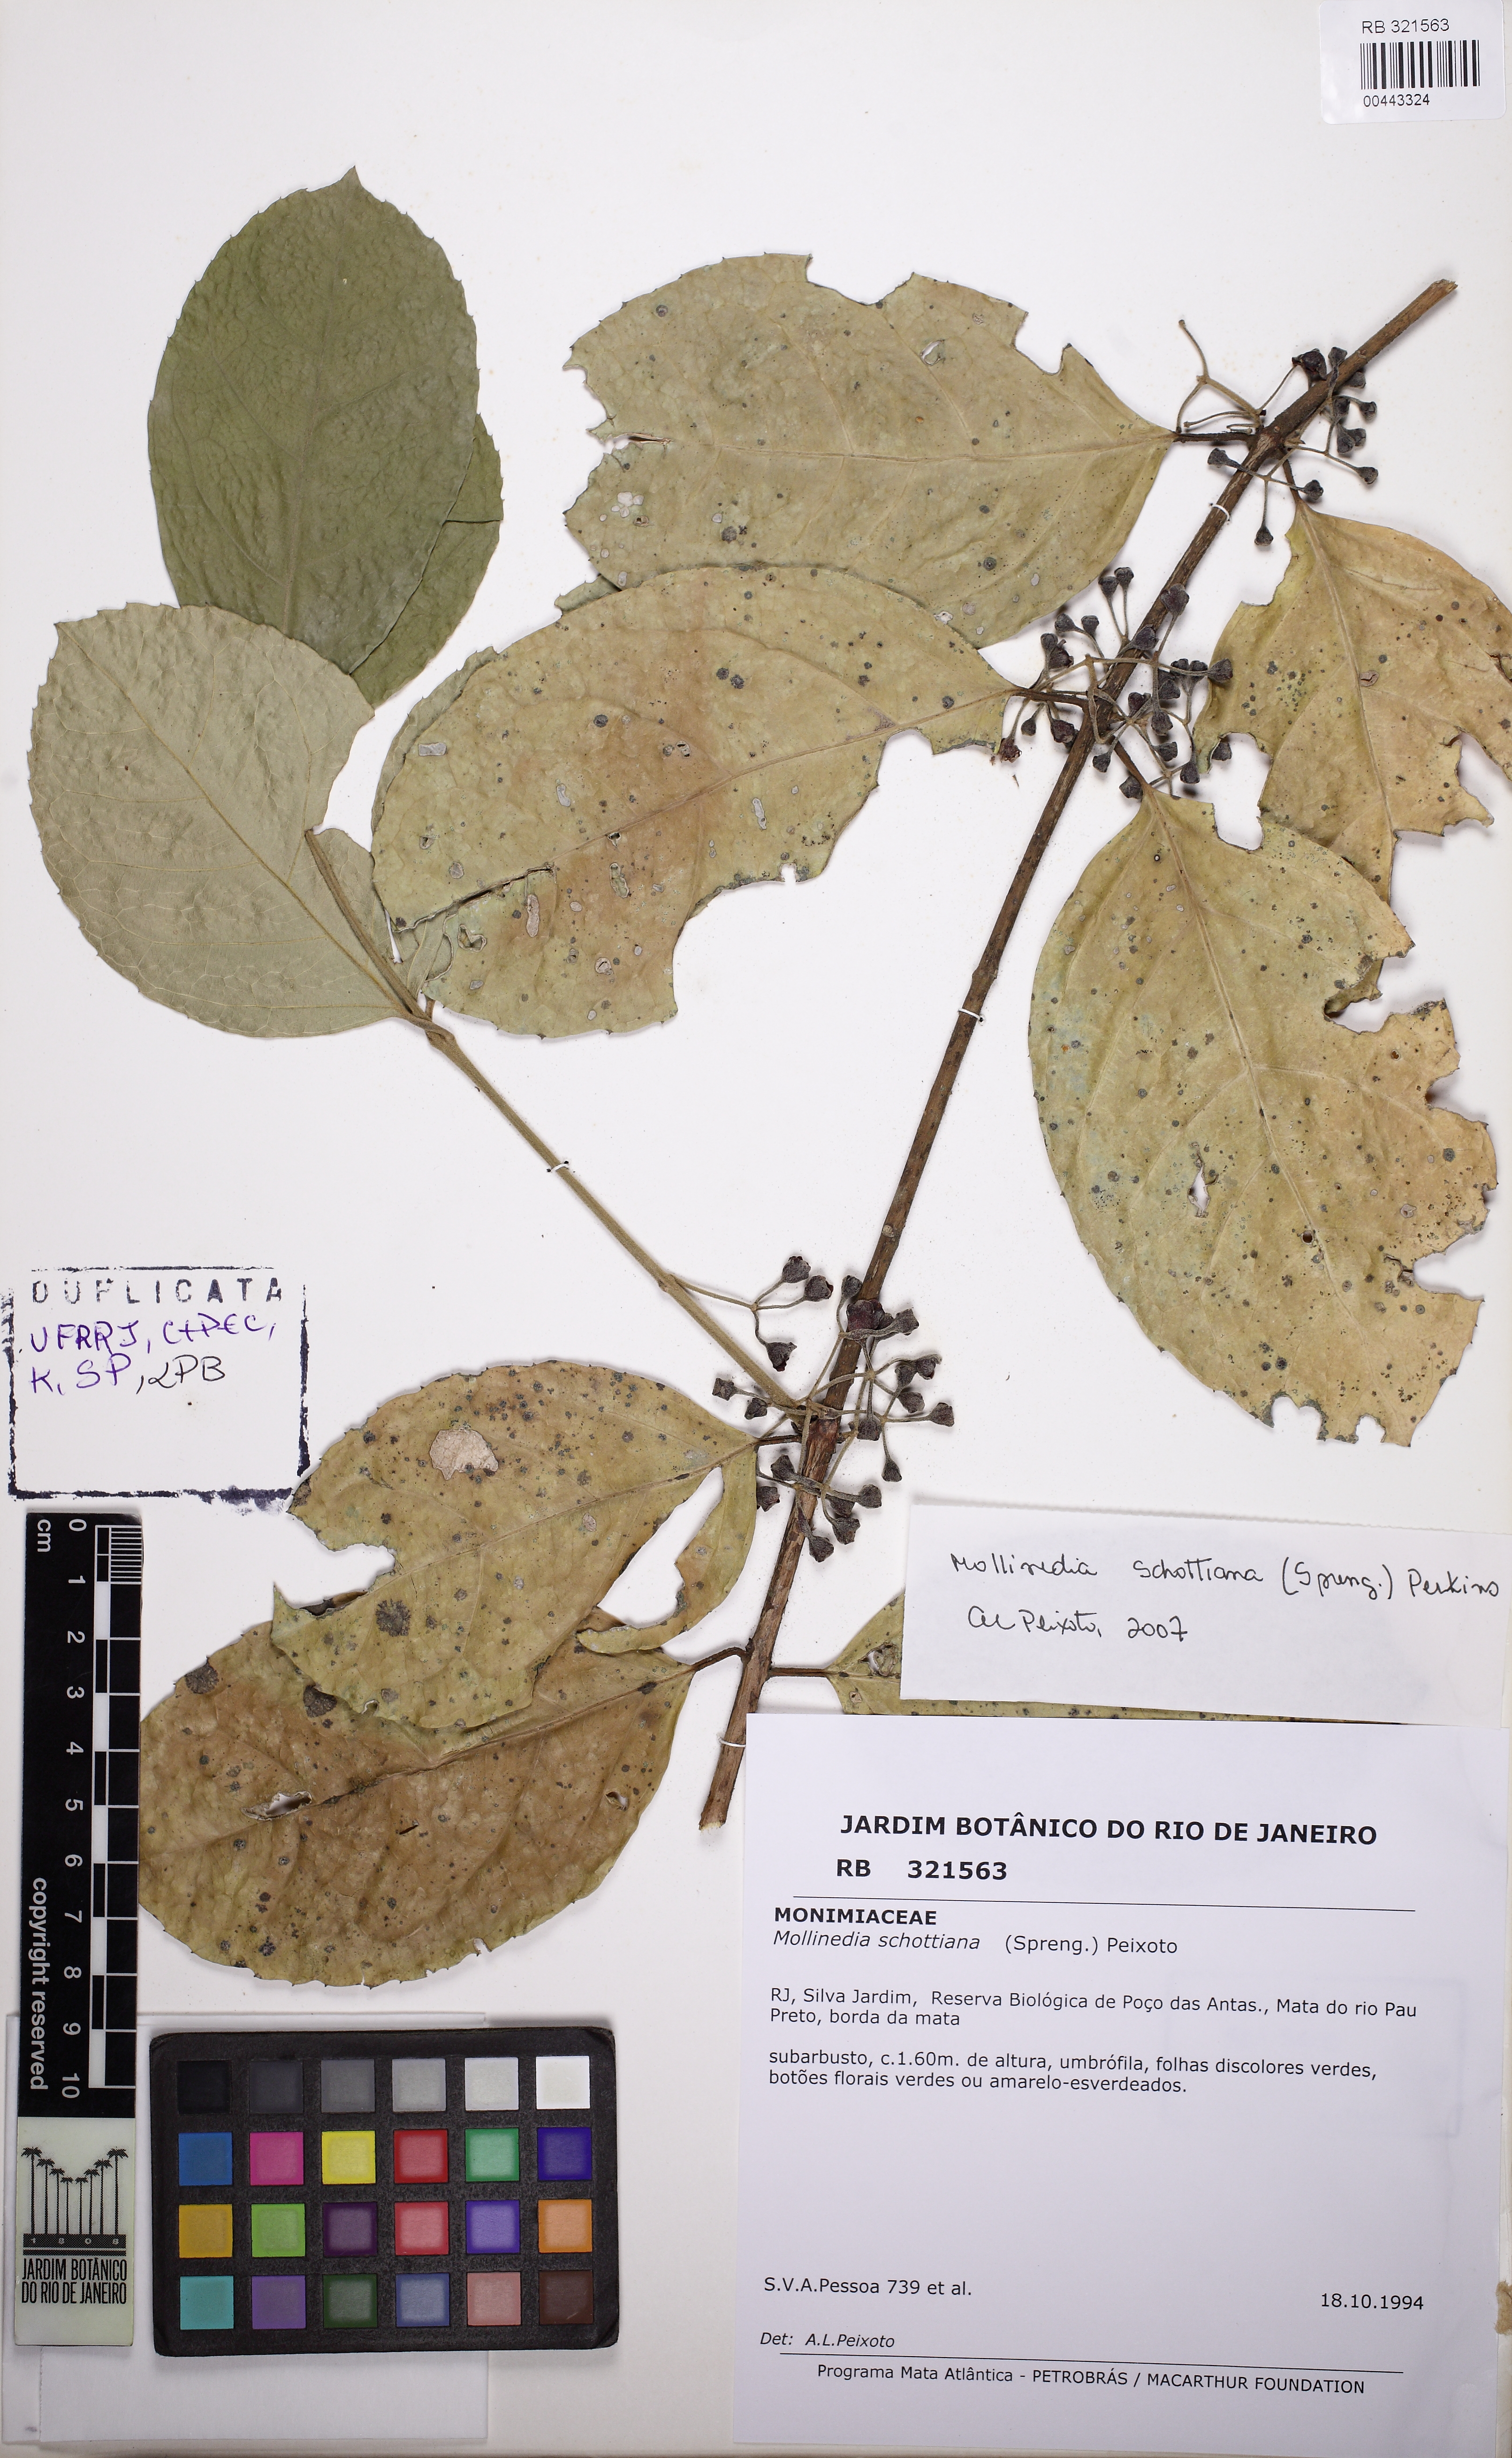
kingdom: Plantae
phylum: Tracheophyta
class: Magnoliopsida
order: Laurales
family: Monimiaceae
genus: Mollinedia
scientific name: Mollinedia umbellata
